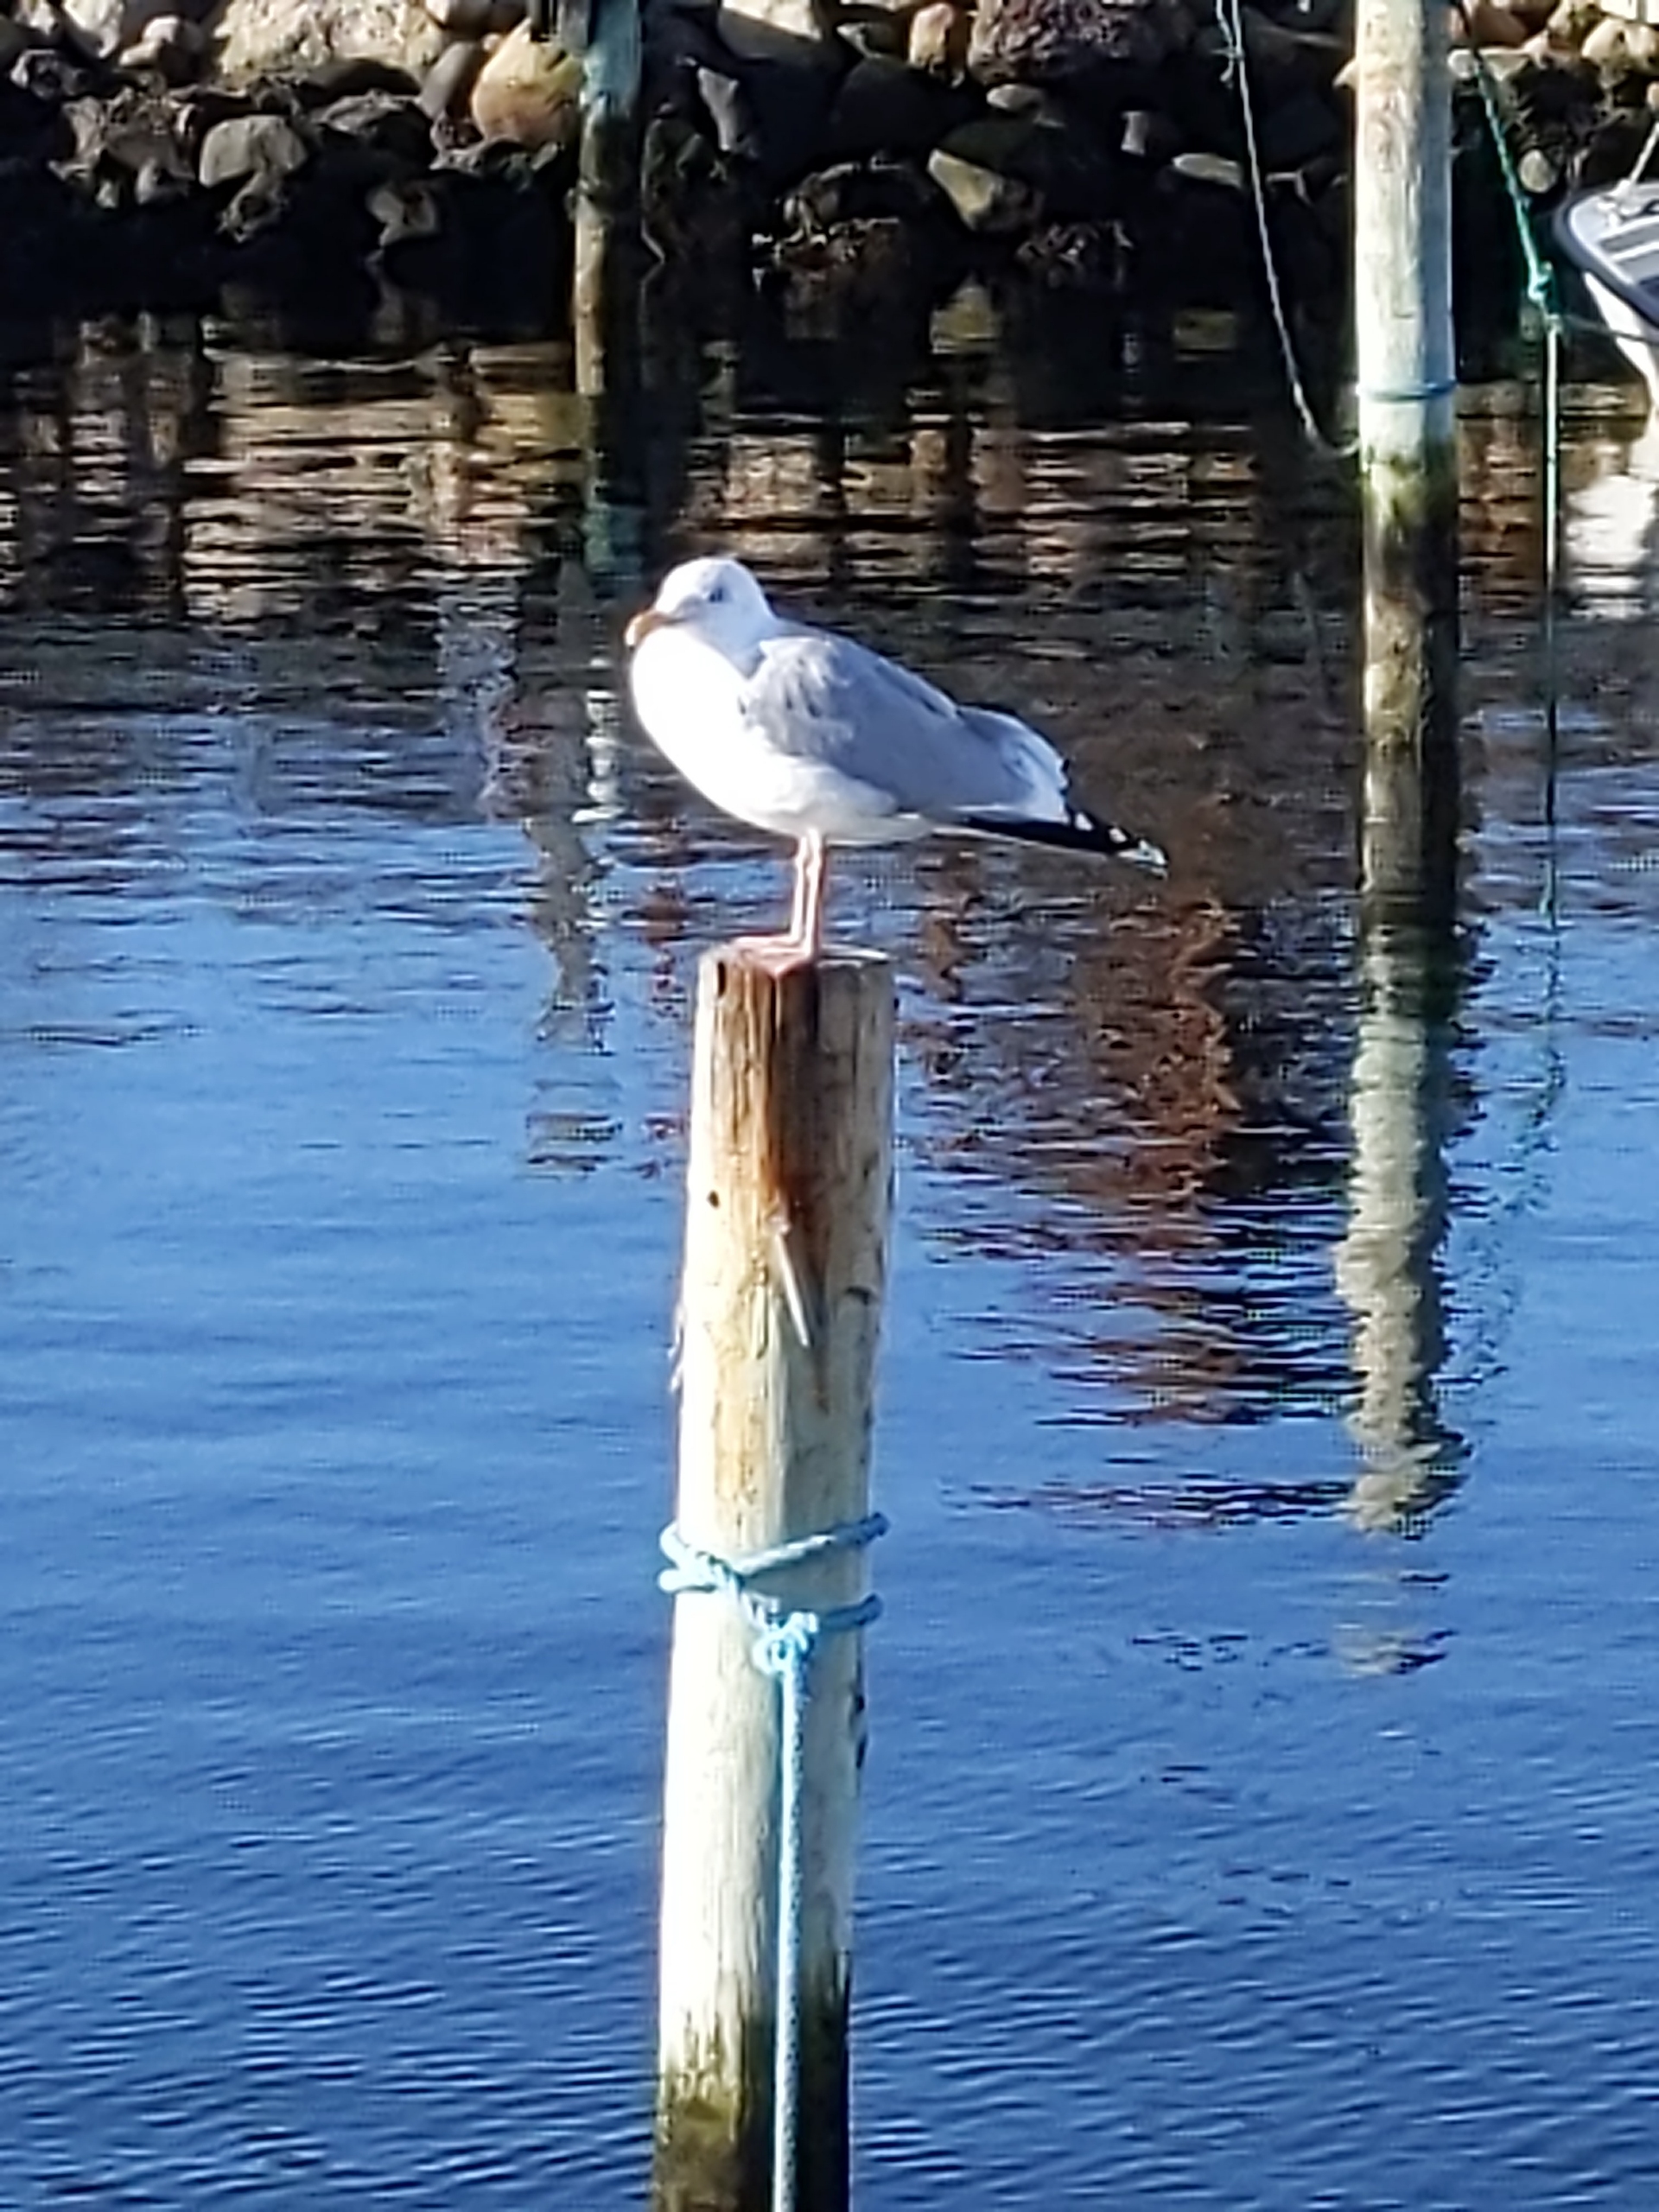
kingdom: Animalia
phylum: Chordata
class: Aves
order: Charadriiformes
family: Laridae
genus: Larus
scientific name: Larus argentatus
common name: Sølvmåge
